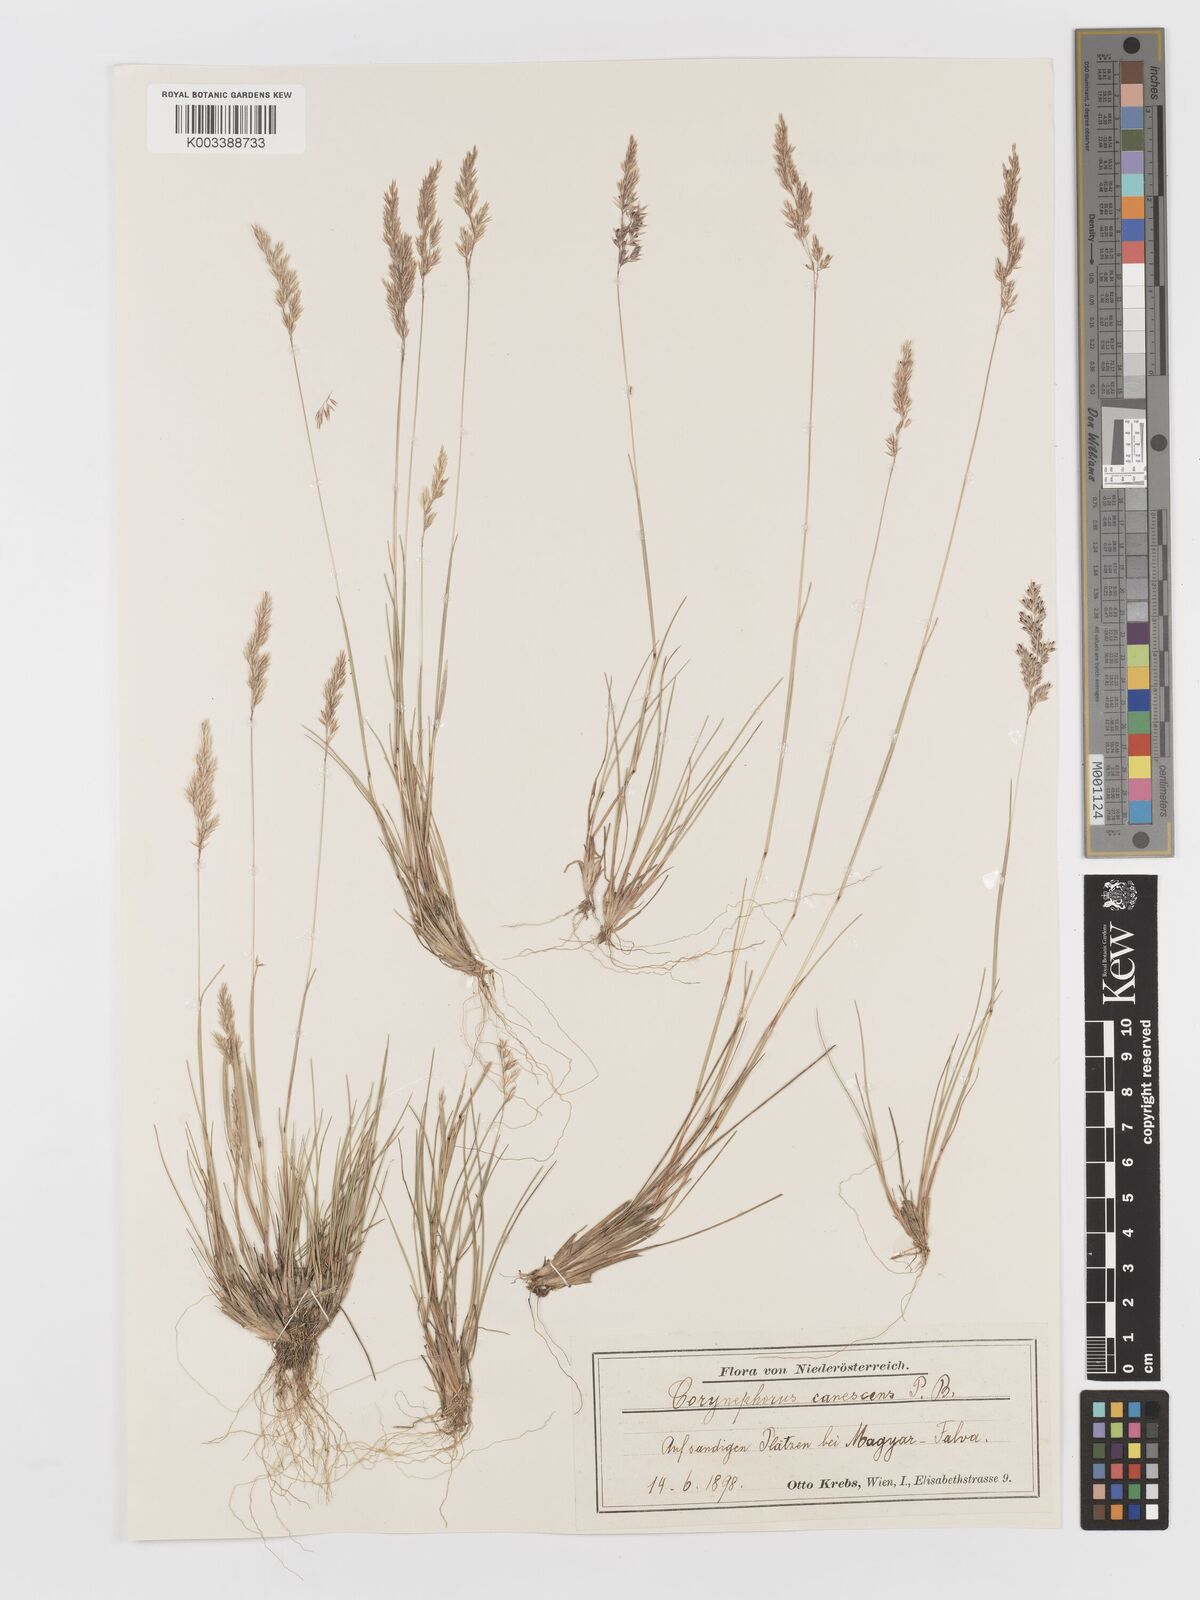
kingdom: Plantae
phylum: Tracheophyta
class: Liliopsida
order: Poales
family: Poaceae
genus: Corynephorus
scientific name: Corynephorus canescens
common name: Grey hair-grass
